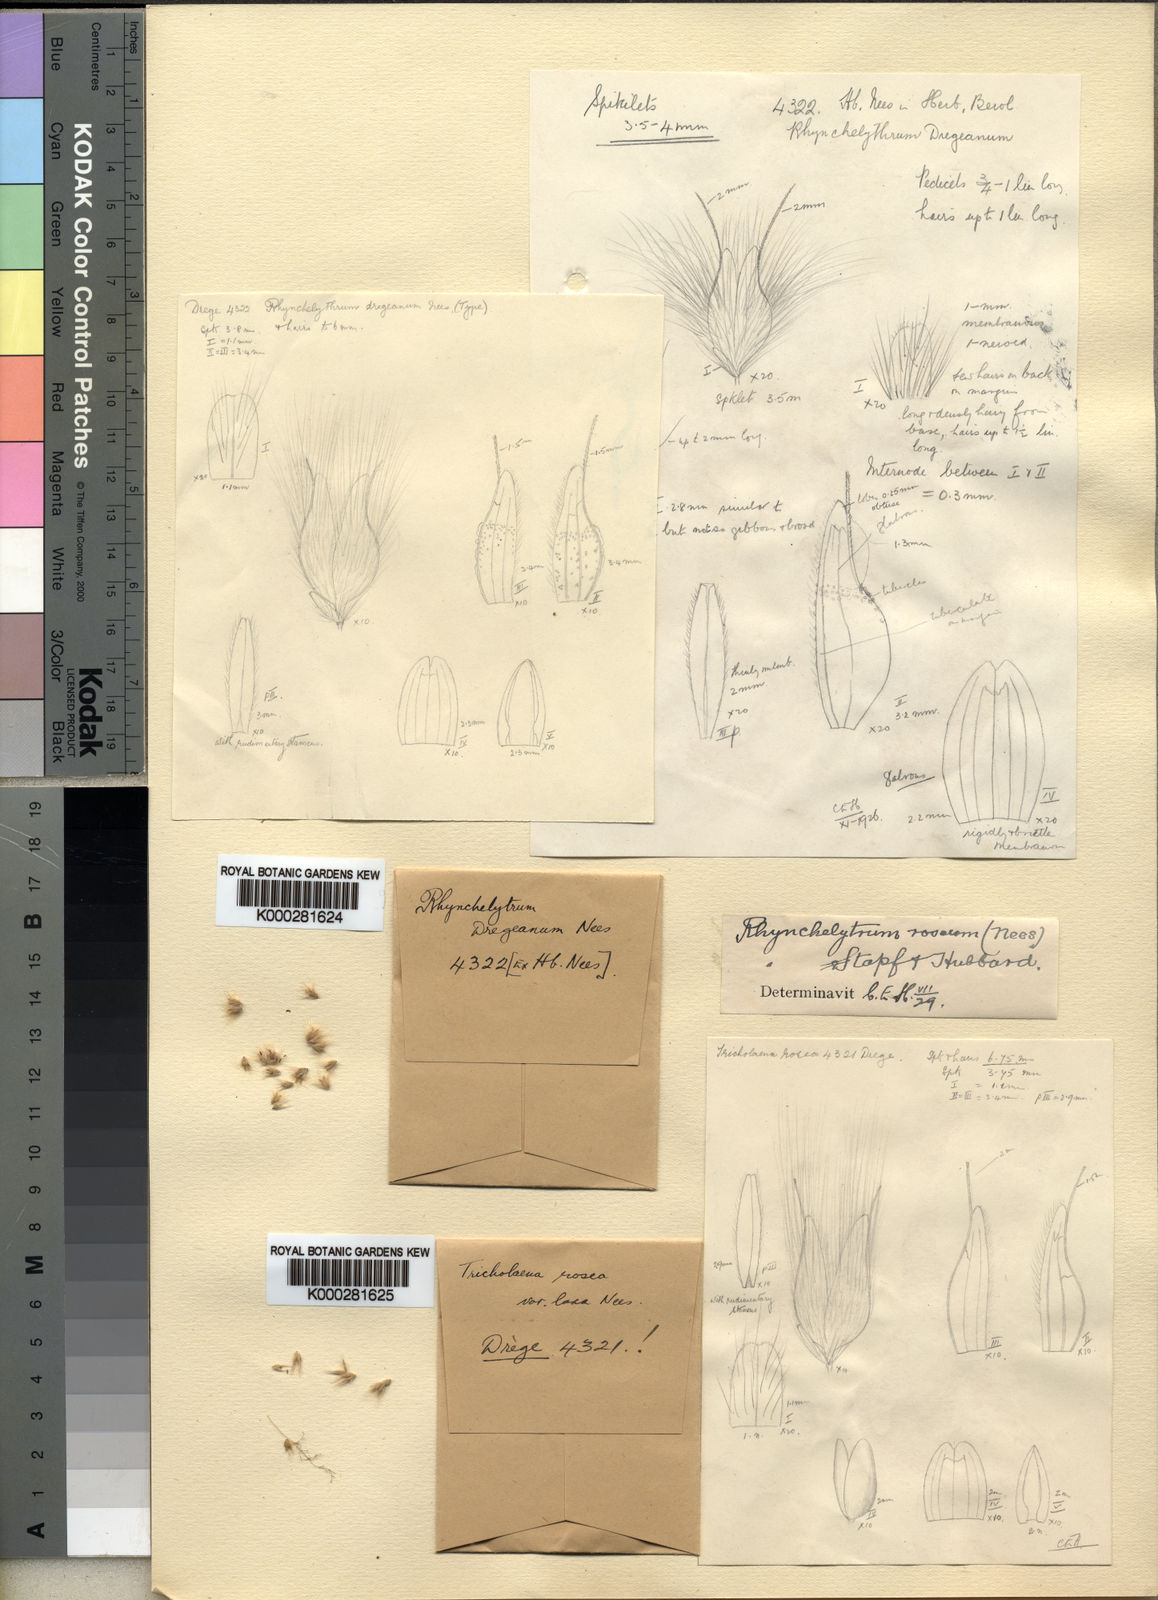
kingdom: Plantae
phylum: Tracheophyta
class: Liliopsida
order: Poales
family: Poaceae
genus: Melinis
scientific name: Melinis repens
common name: Rose natal grass
